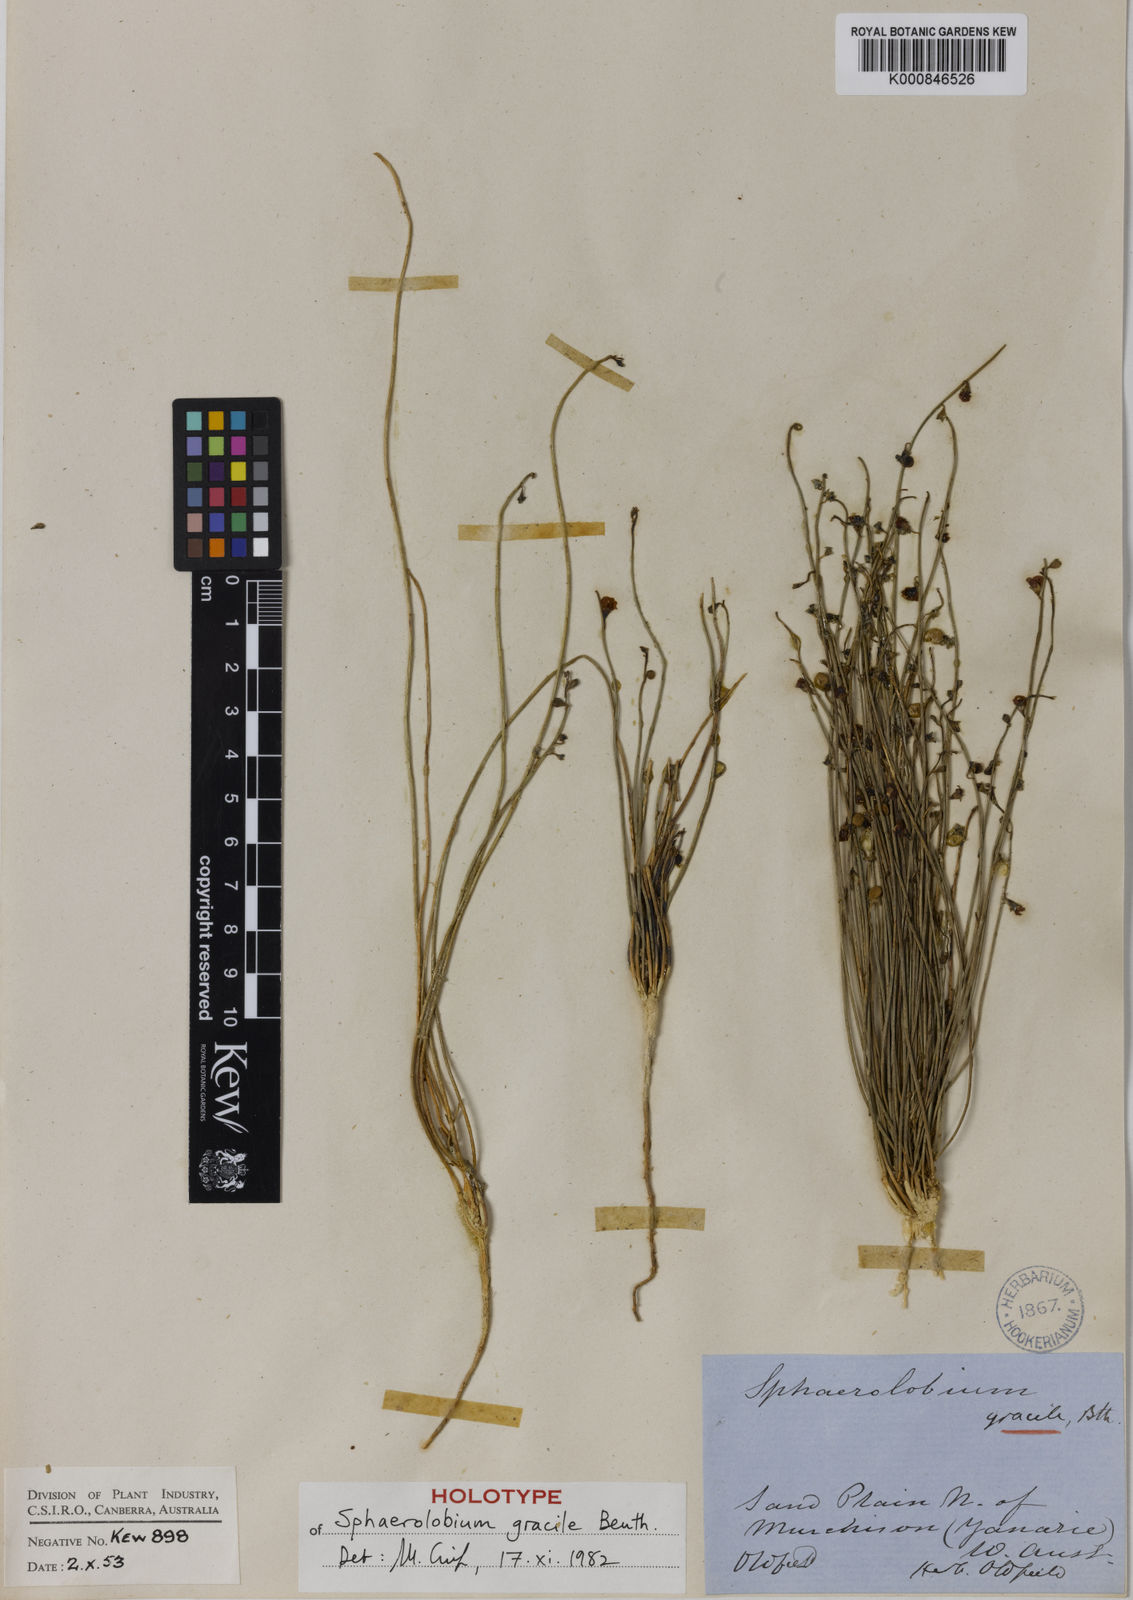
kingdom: Plantae
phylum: Tracheophyta
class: Magnoliopsida
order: Fabales
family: Fabaceae
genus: Sphaerolobium
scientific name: Sphaerolobium gracile
